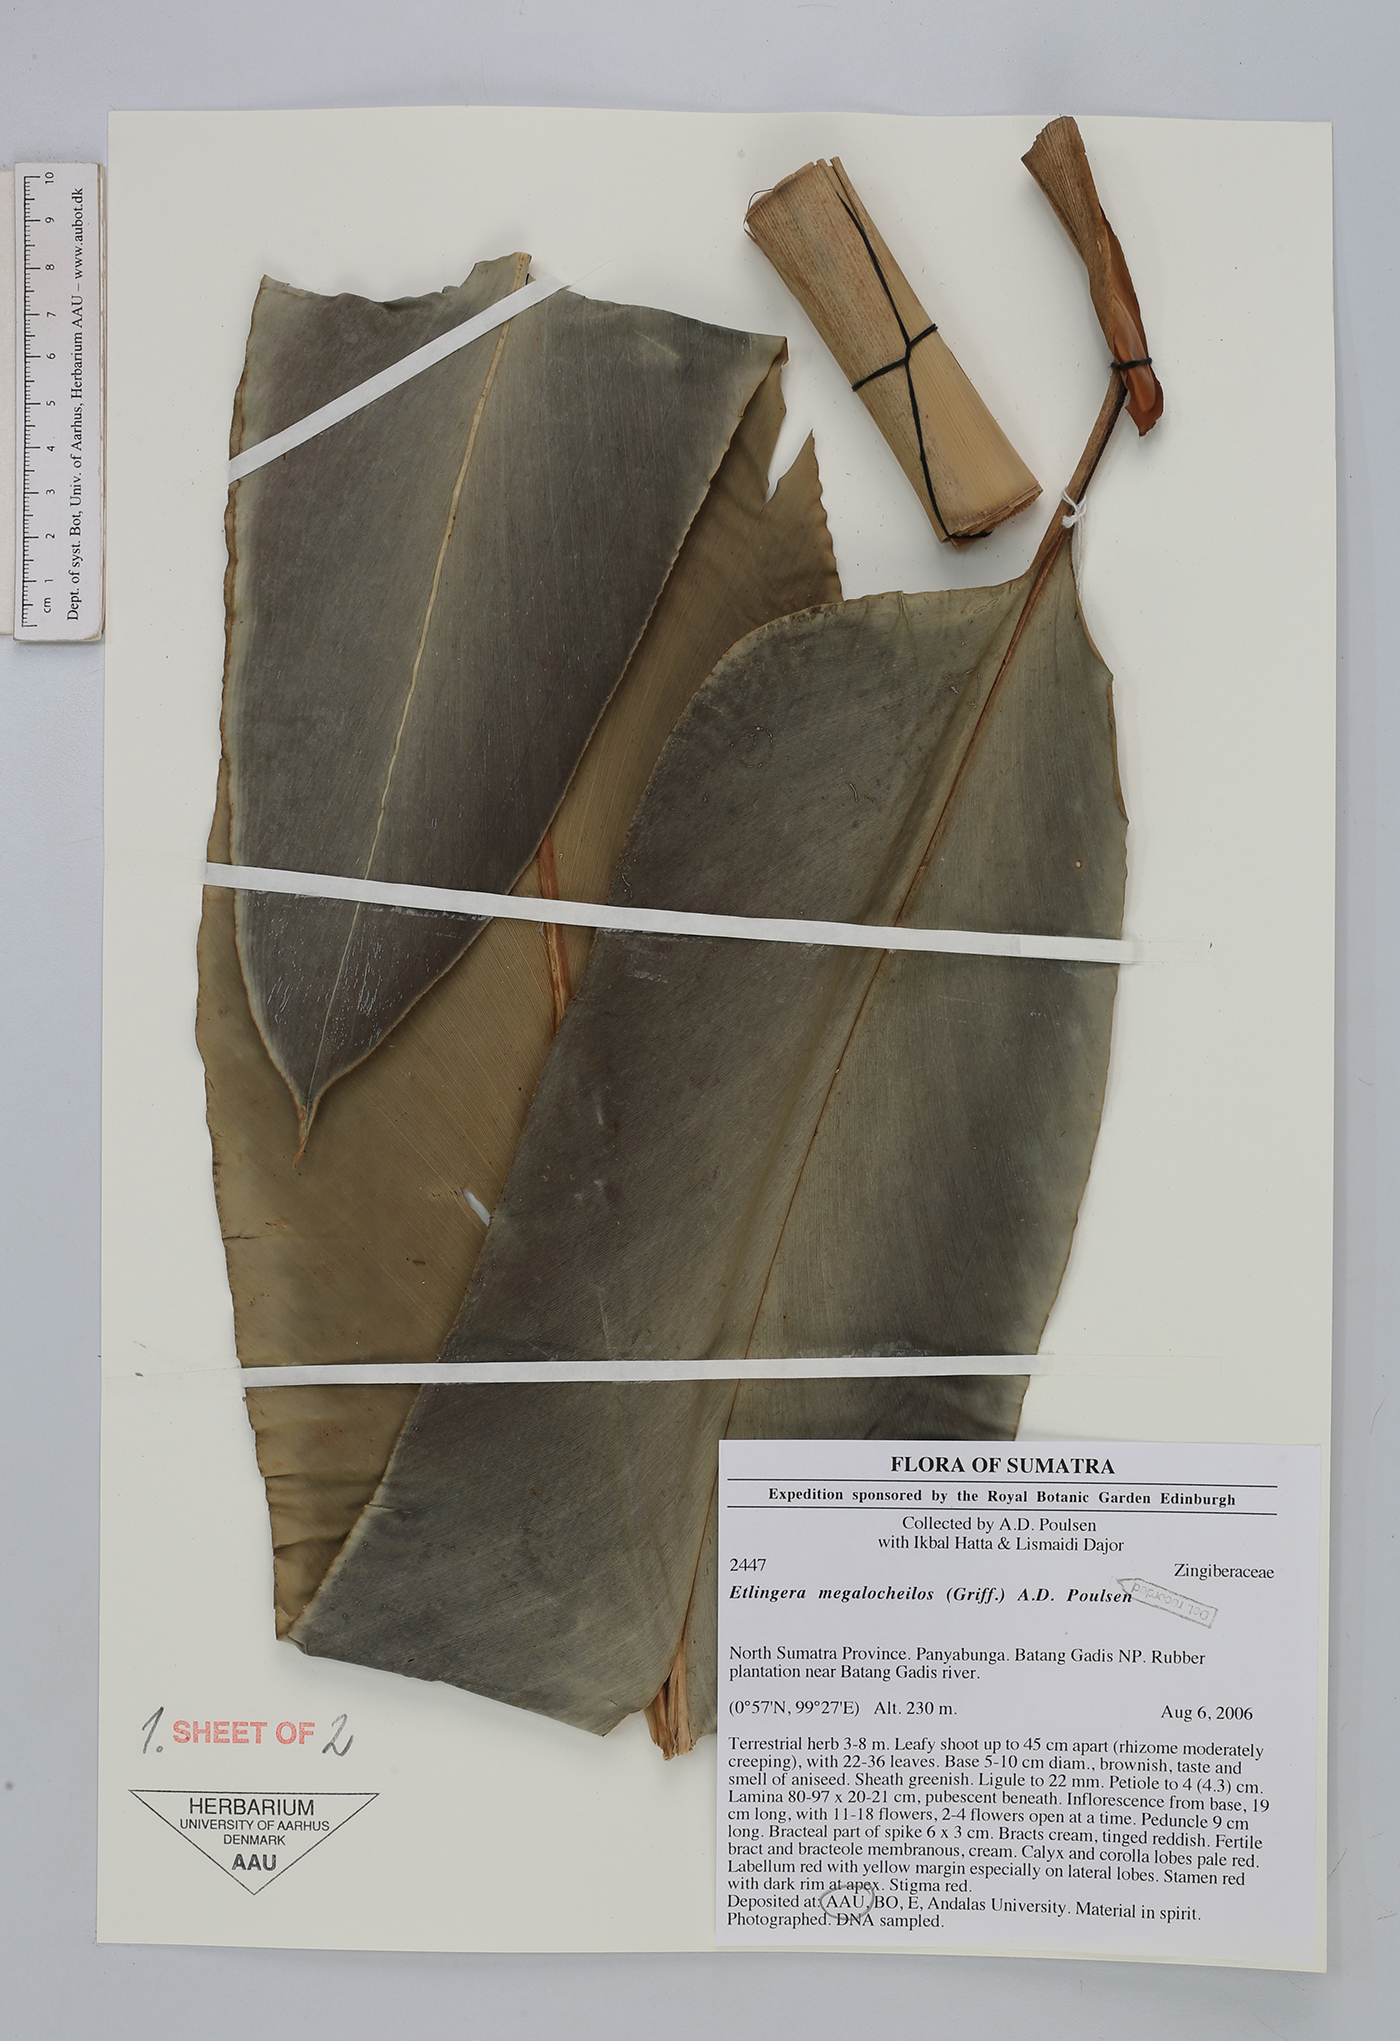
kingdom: Plantae
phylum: Tracheophyta
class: Liliopsida
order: Zingiberales
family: Zingiberaceae
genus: Etlingera
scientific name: Etlingera megalocheilos
